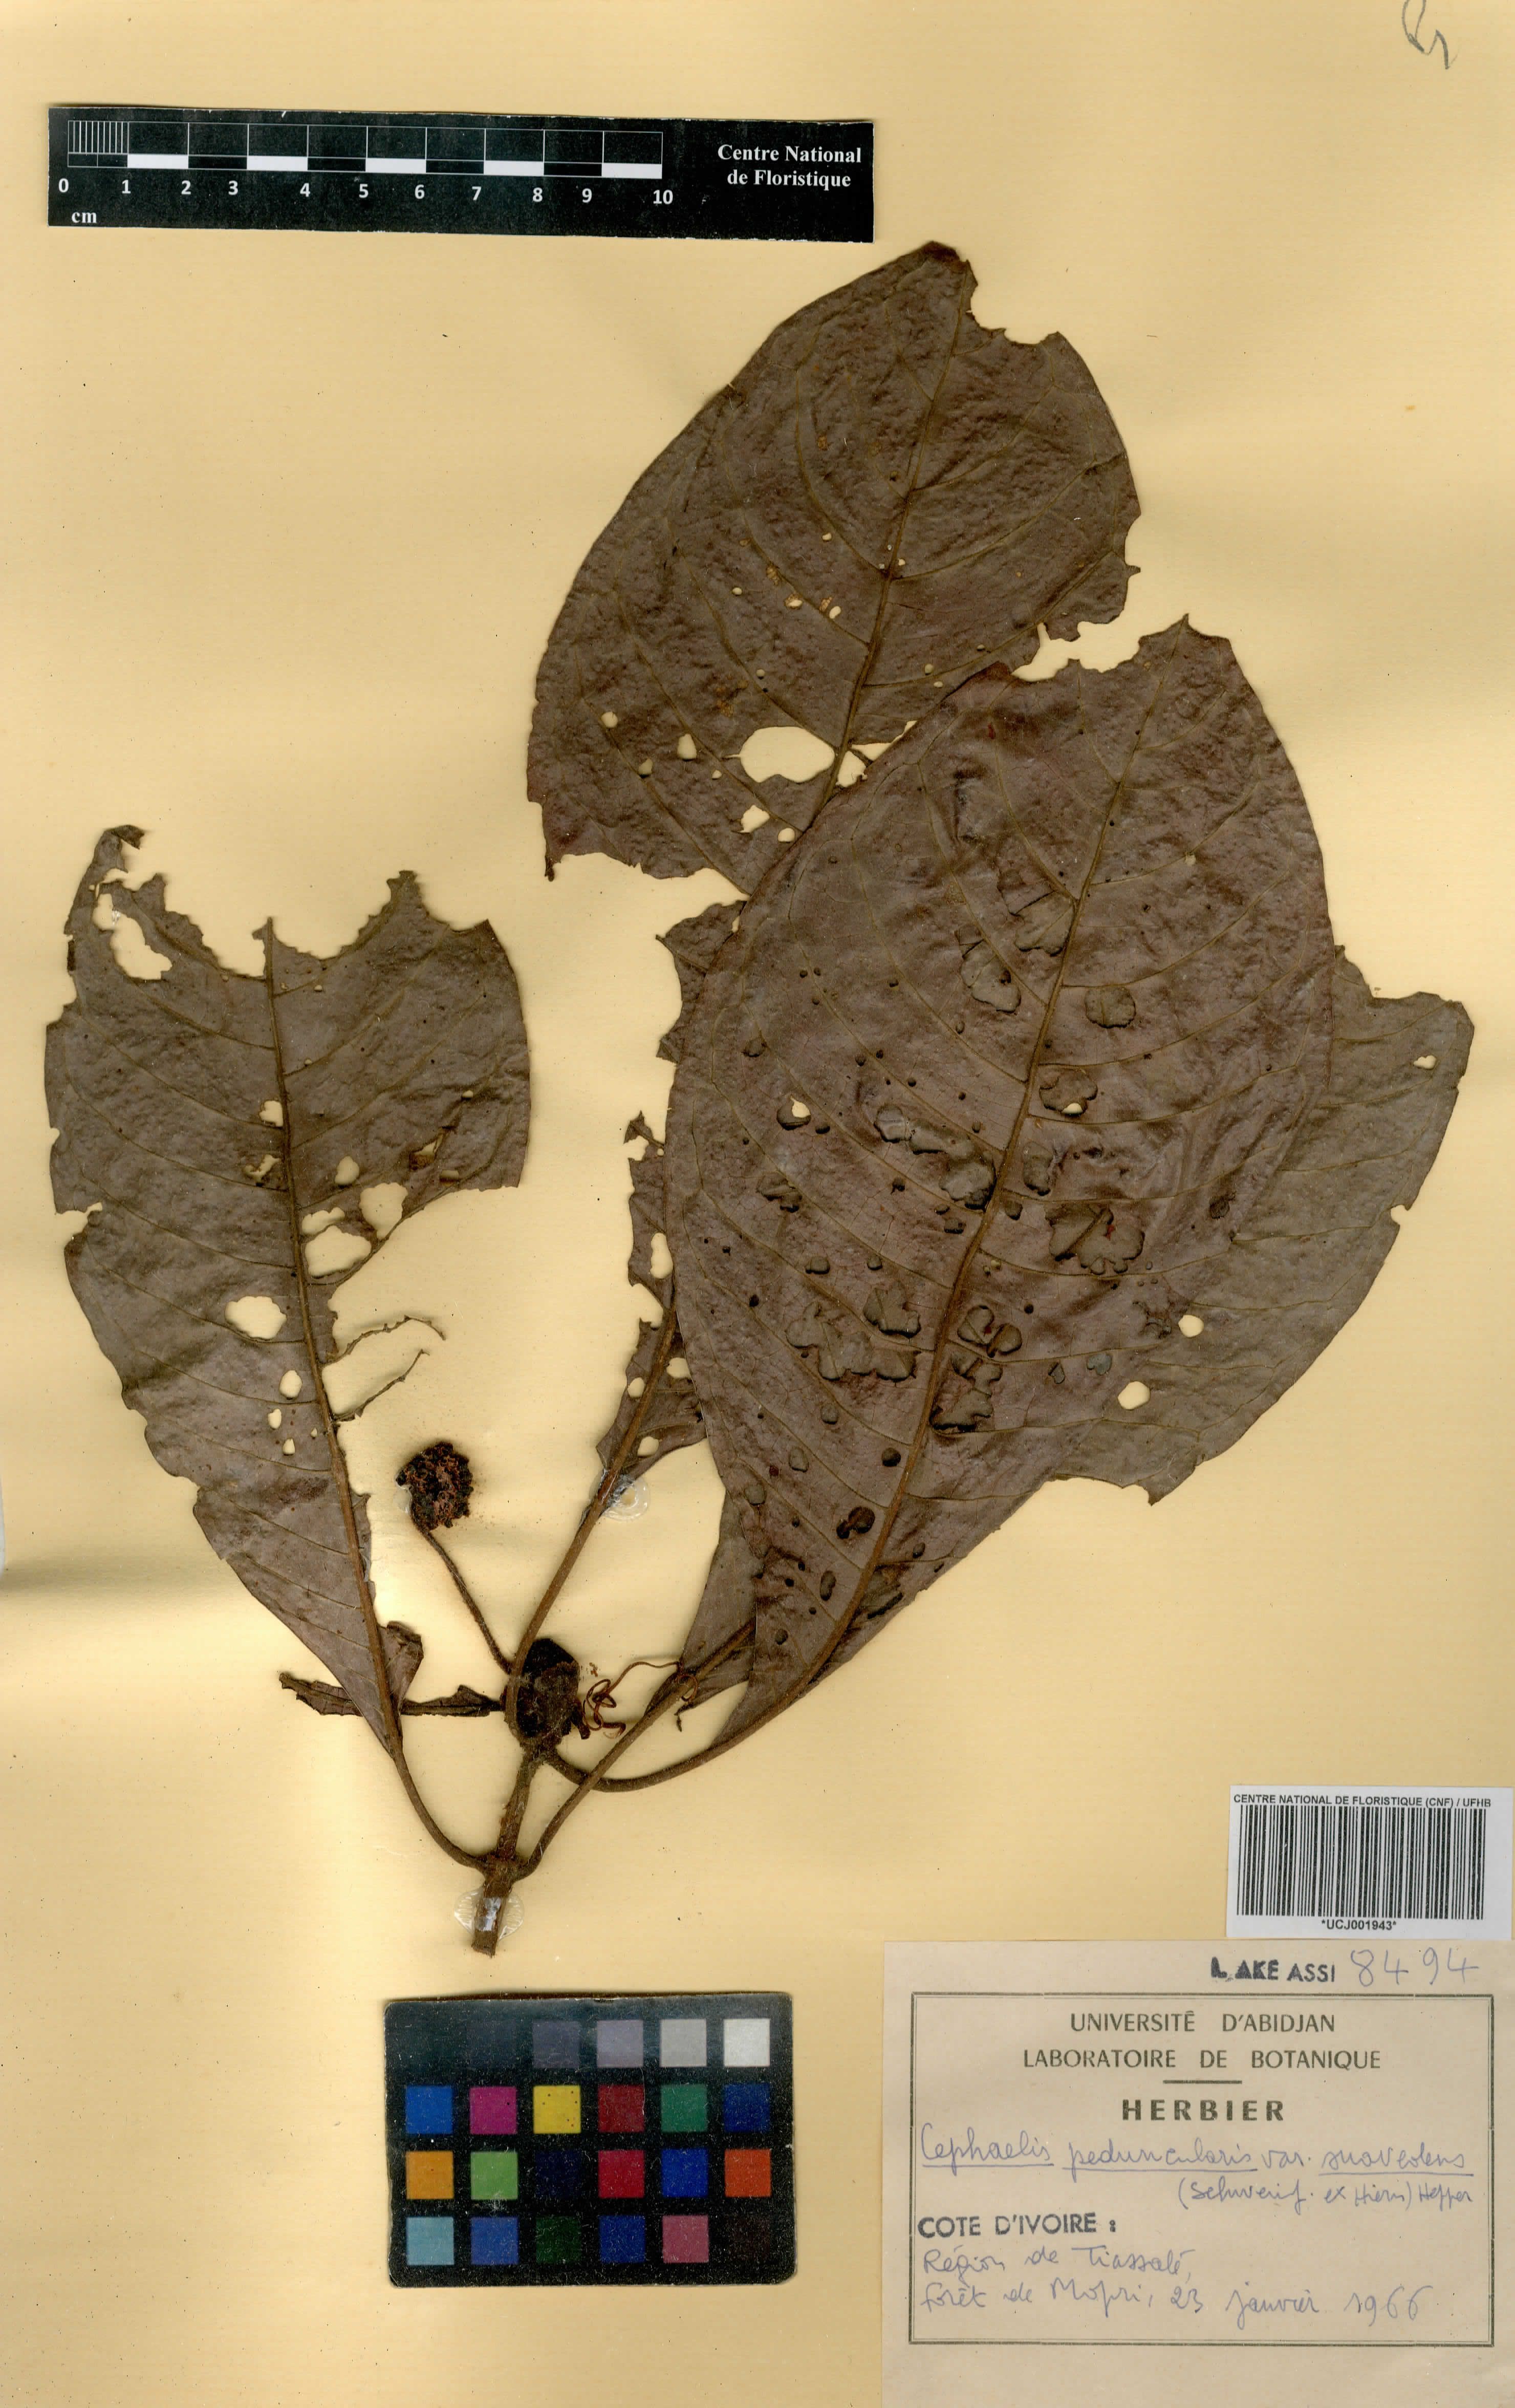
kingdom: Plantae
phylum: Tracheophyta
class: Magnoliopsida
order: Gentianales
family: Rubiaceae
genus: Psychotria
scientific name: Psychotria peduncularis
